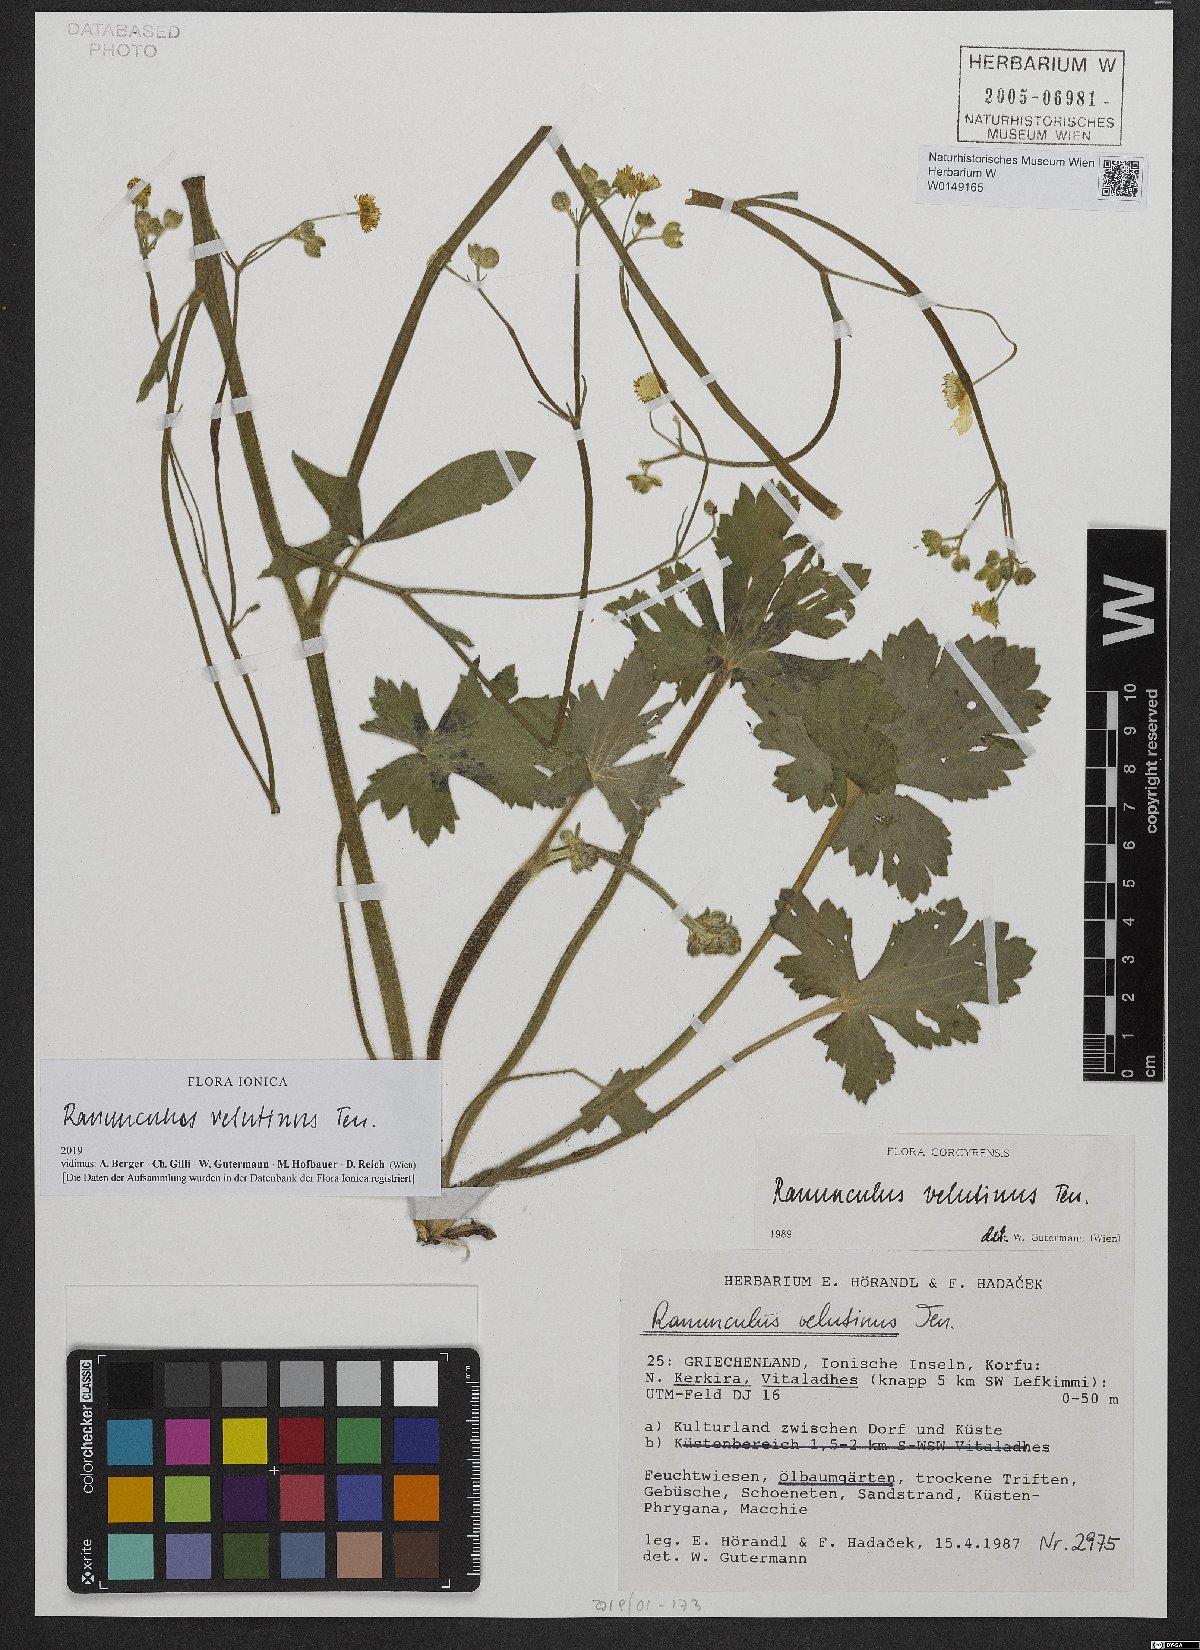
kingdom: Plantae
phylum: Tracheophyta
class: Magnoliopsida
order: Ranunculales
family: Ranunculaceae
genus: Ranunculus
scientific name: Ranunculus velutinus
